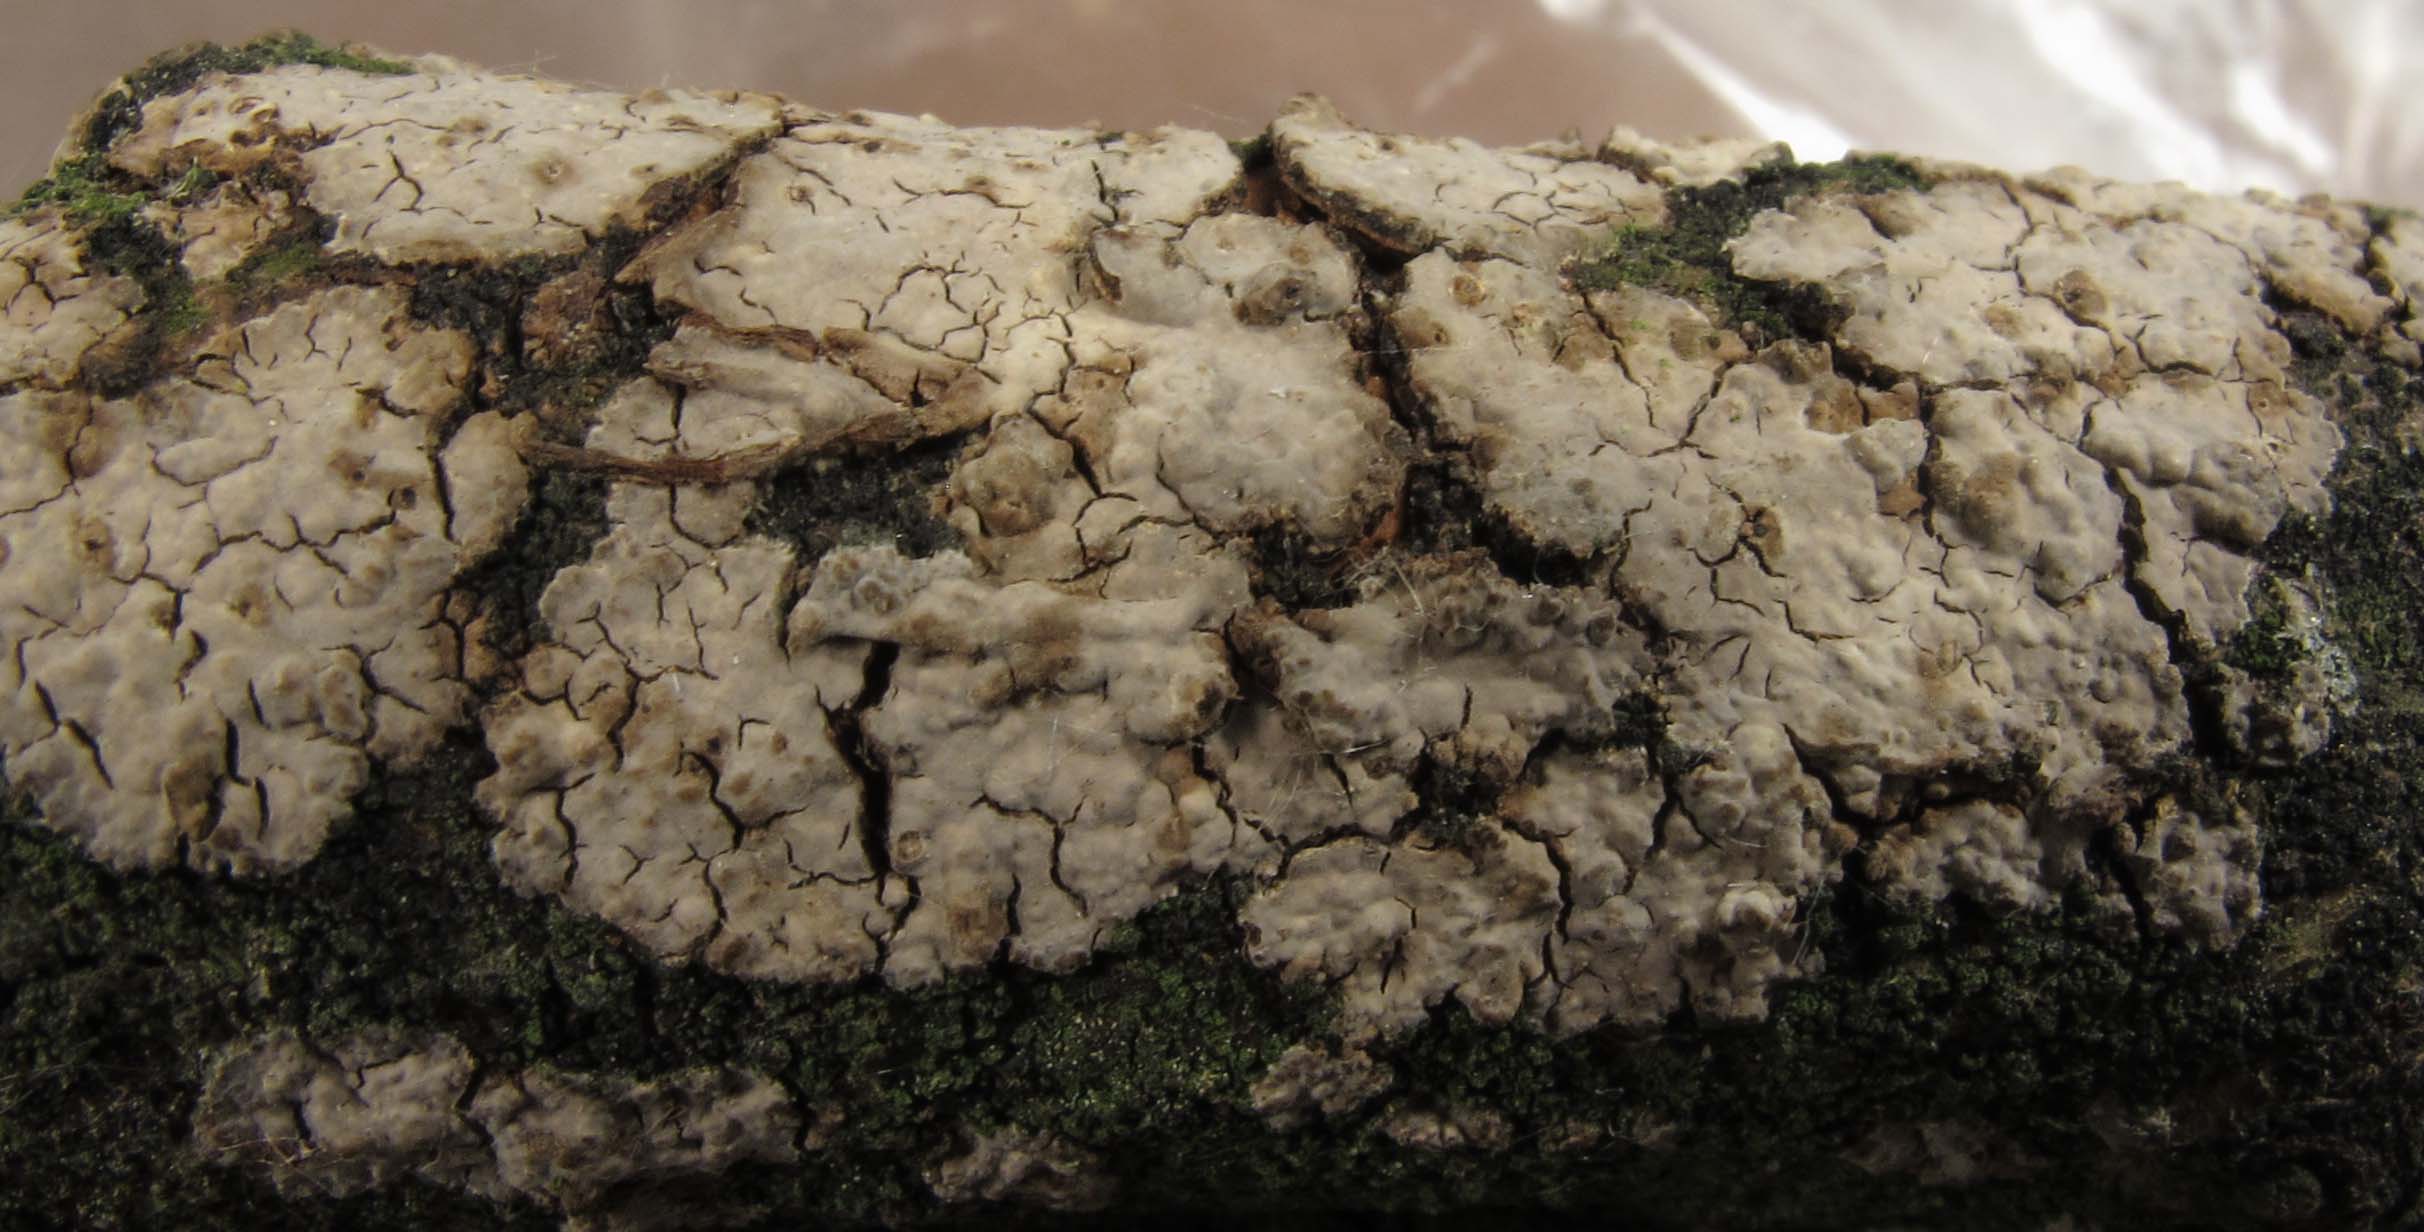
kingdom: Fungi
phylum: Basidiomycota
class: Agaricomycetes
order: Russulales
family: Peniophoraceae
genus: Peniophora
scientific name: Peniophora cinerea
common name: grå voksskind
